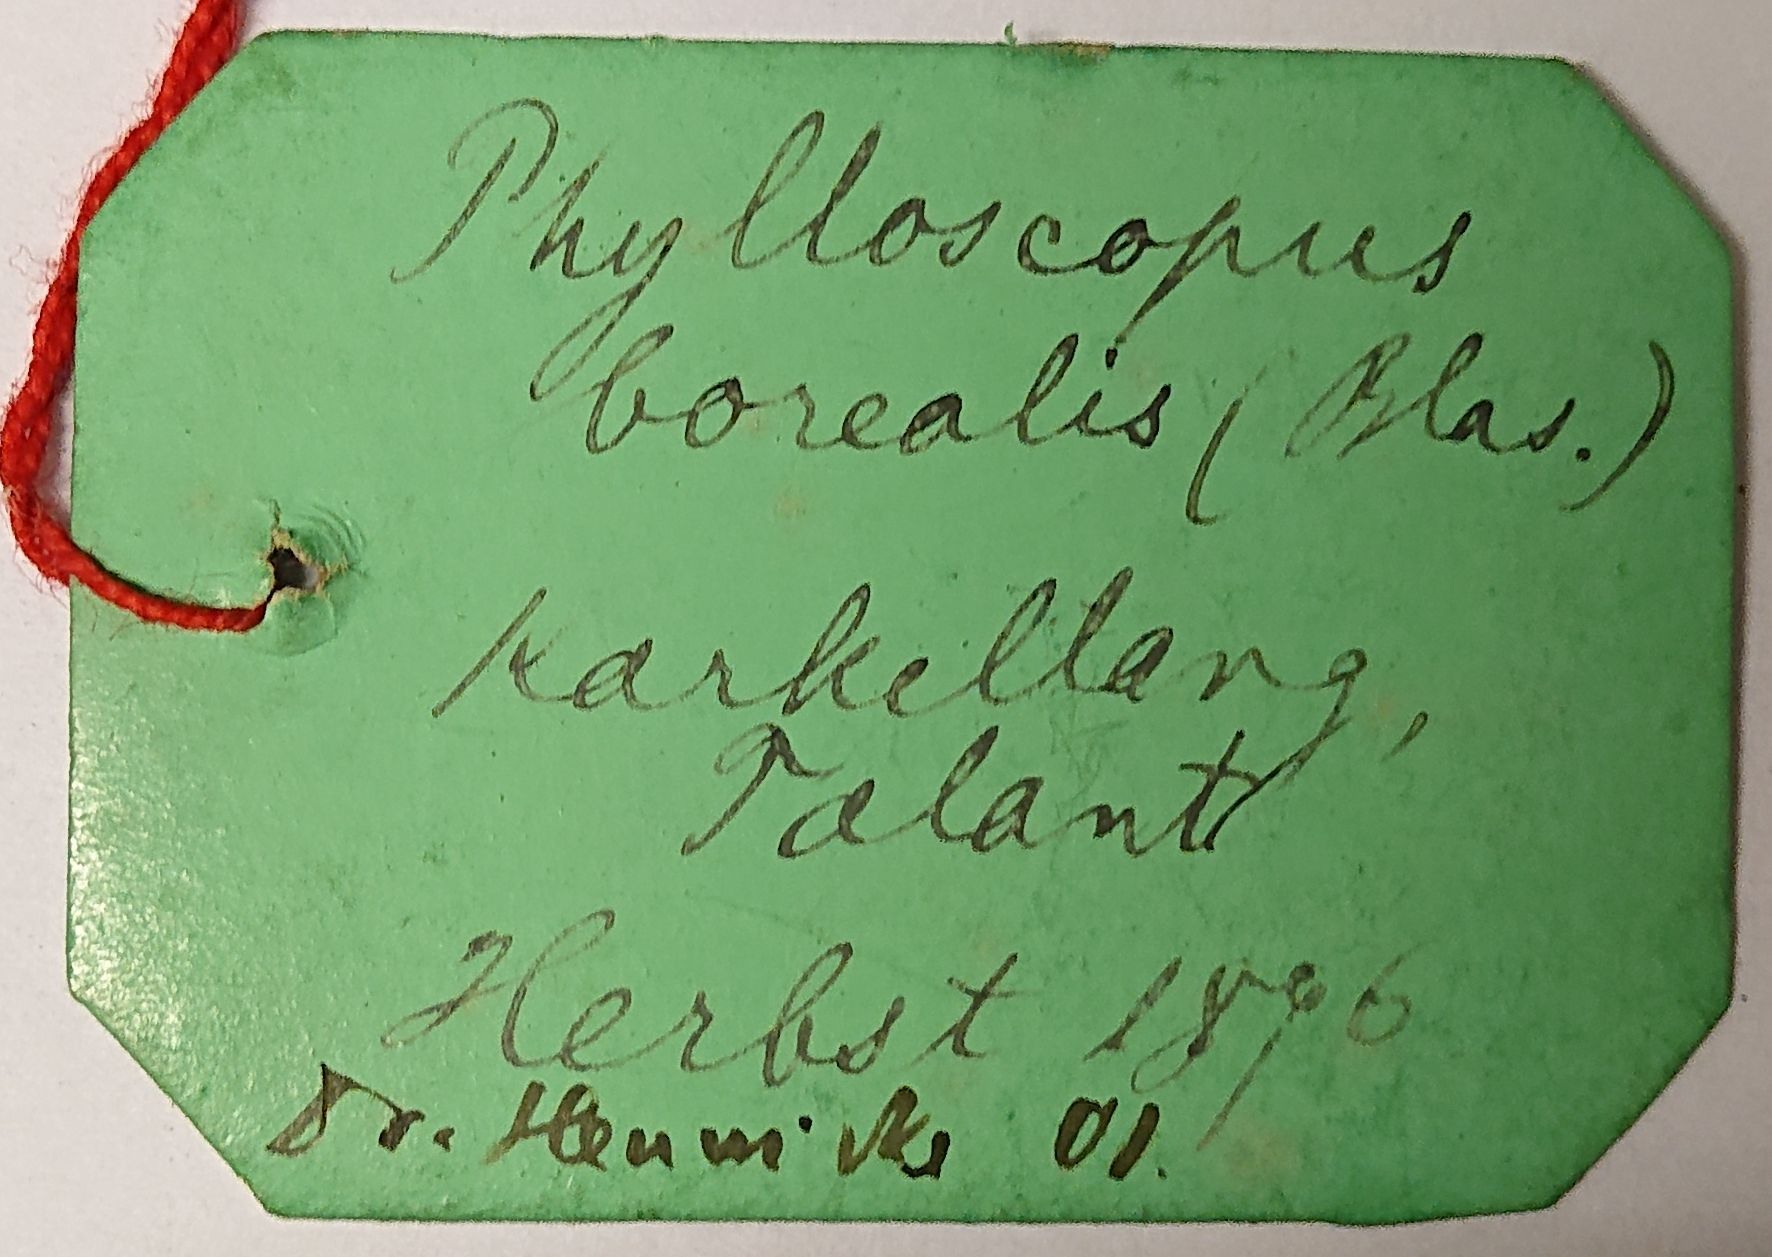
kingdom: Animalia
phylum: Chordata
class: Aves
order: Passeriformes
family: Phylloscopidae
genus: Phylloscopus
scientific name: Phylloscopus borealis
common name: Arctic warbler
